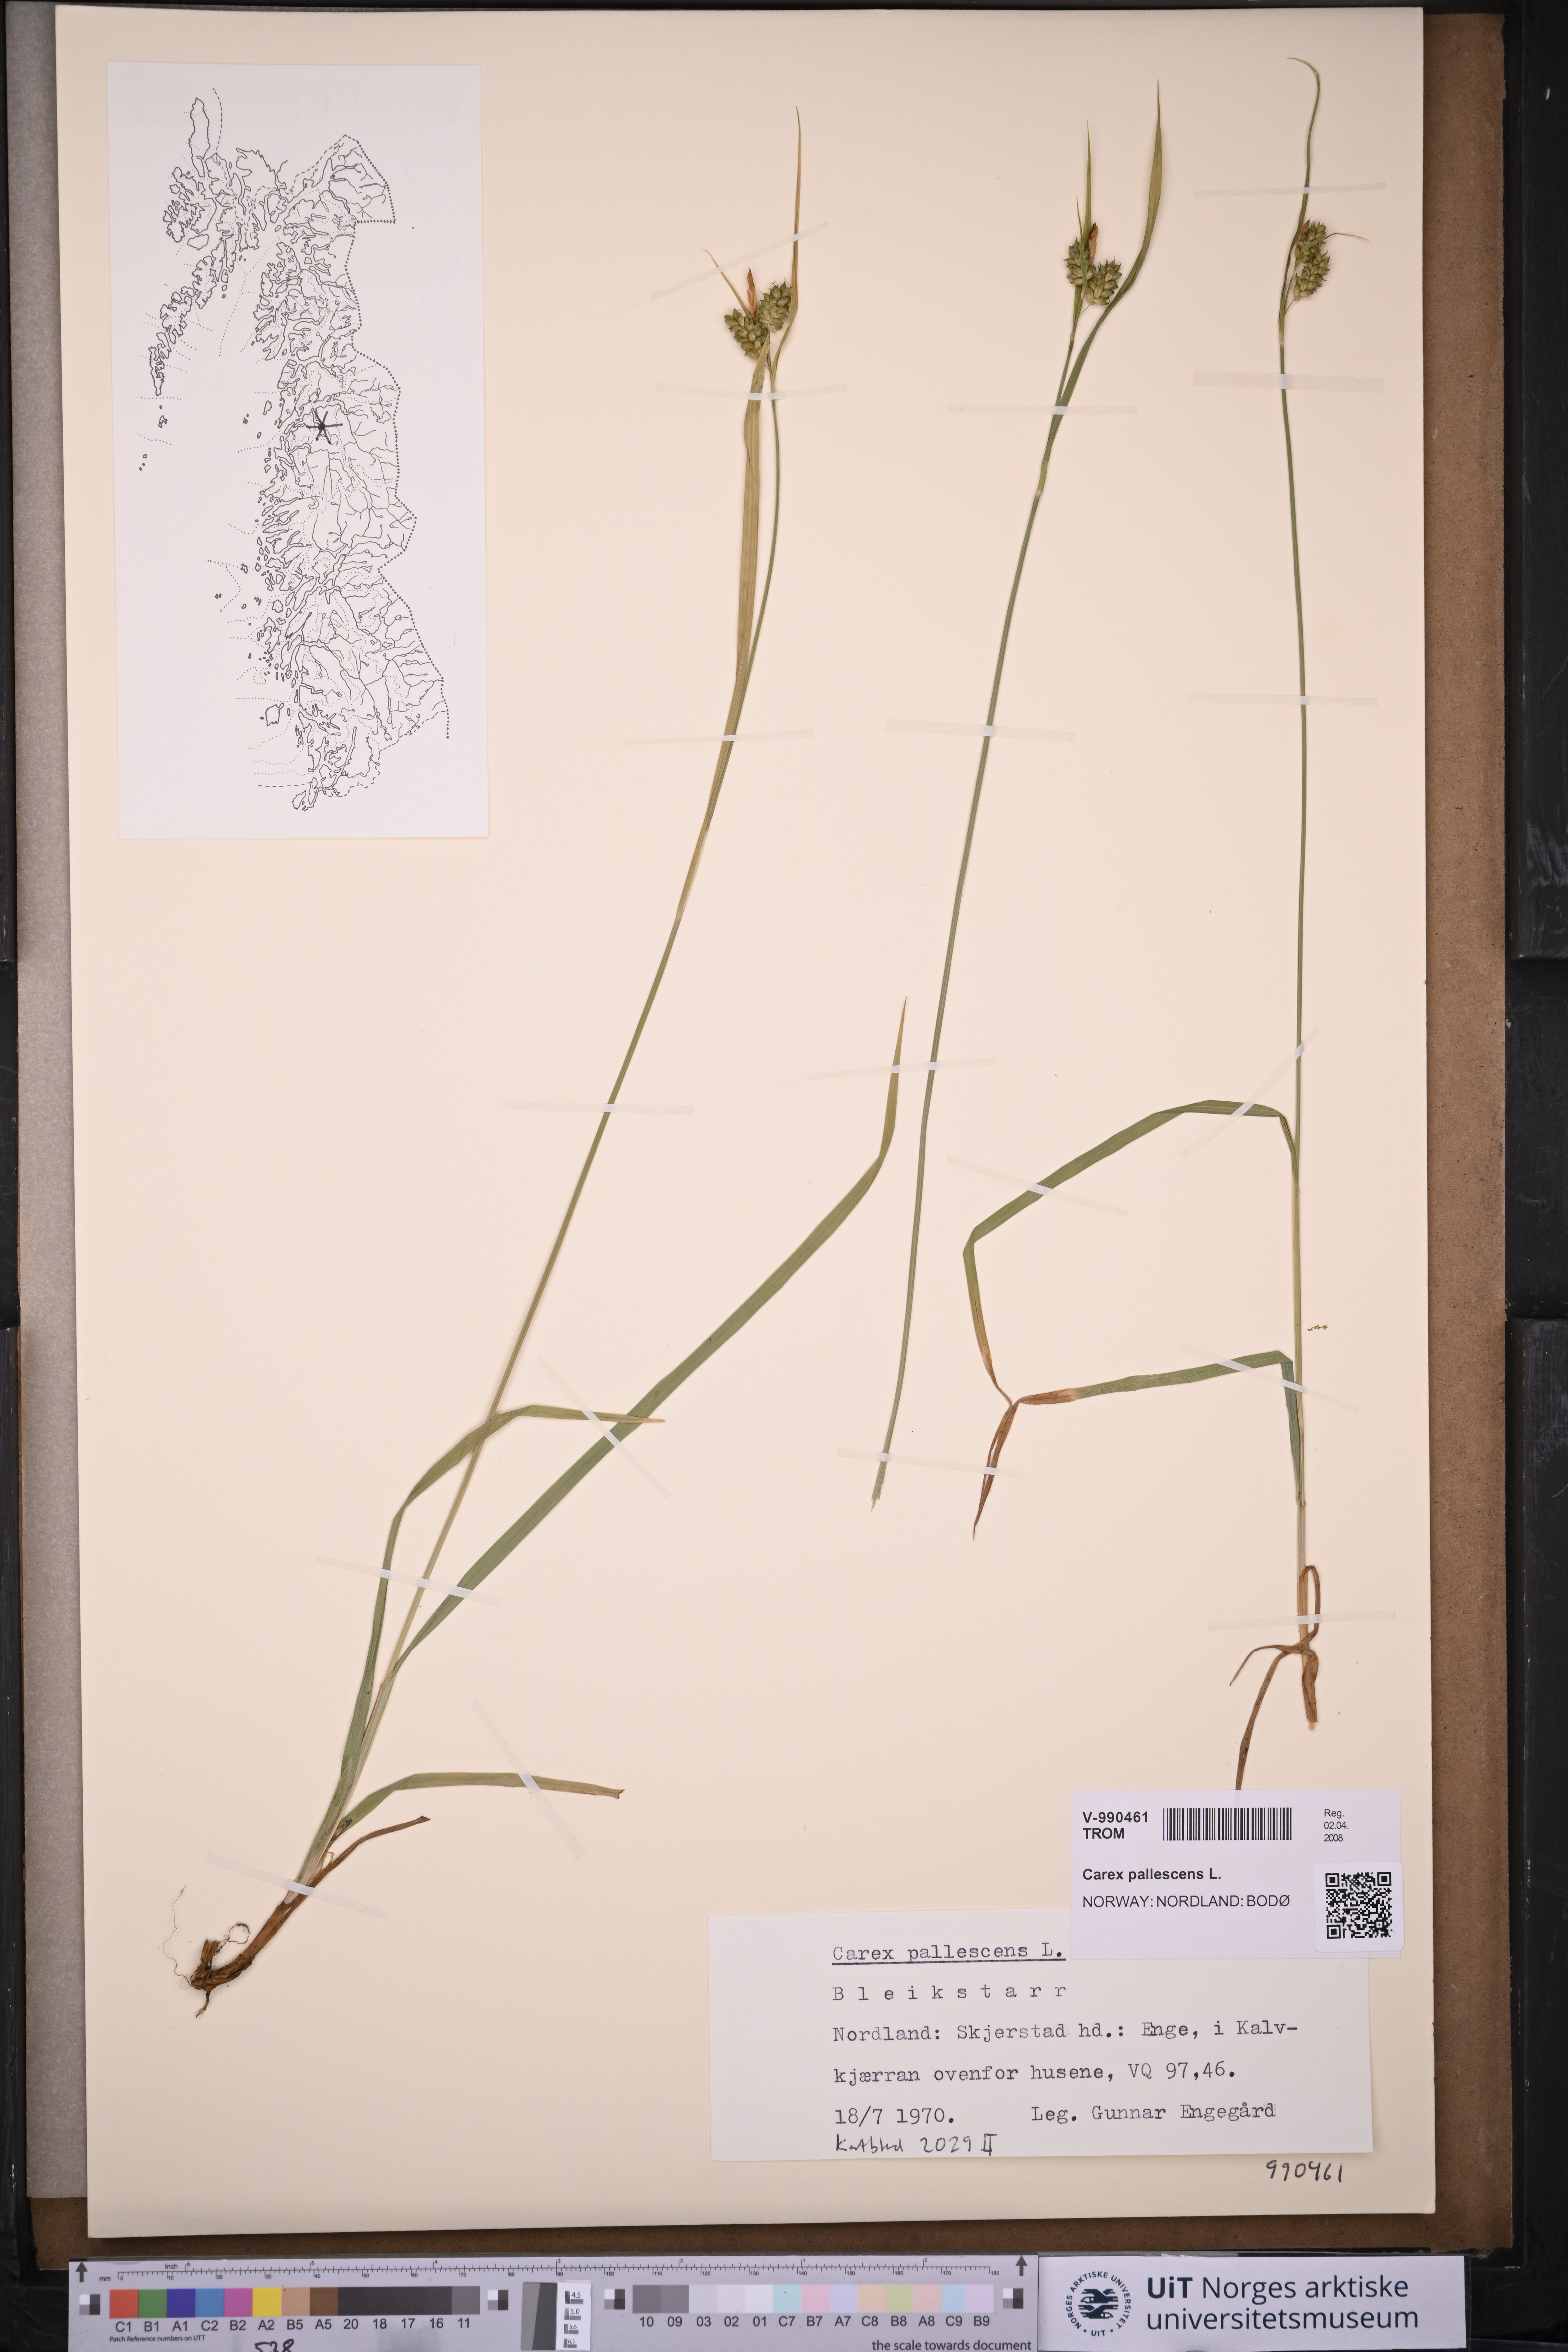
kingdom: Plantae
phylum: Tracheophyta
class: Liliopsida
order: Poales
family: Cyperaceae
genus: Carex
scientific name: Carex pallescens
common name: Pale sedge
